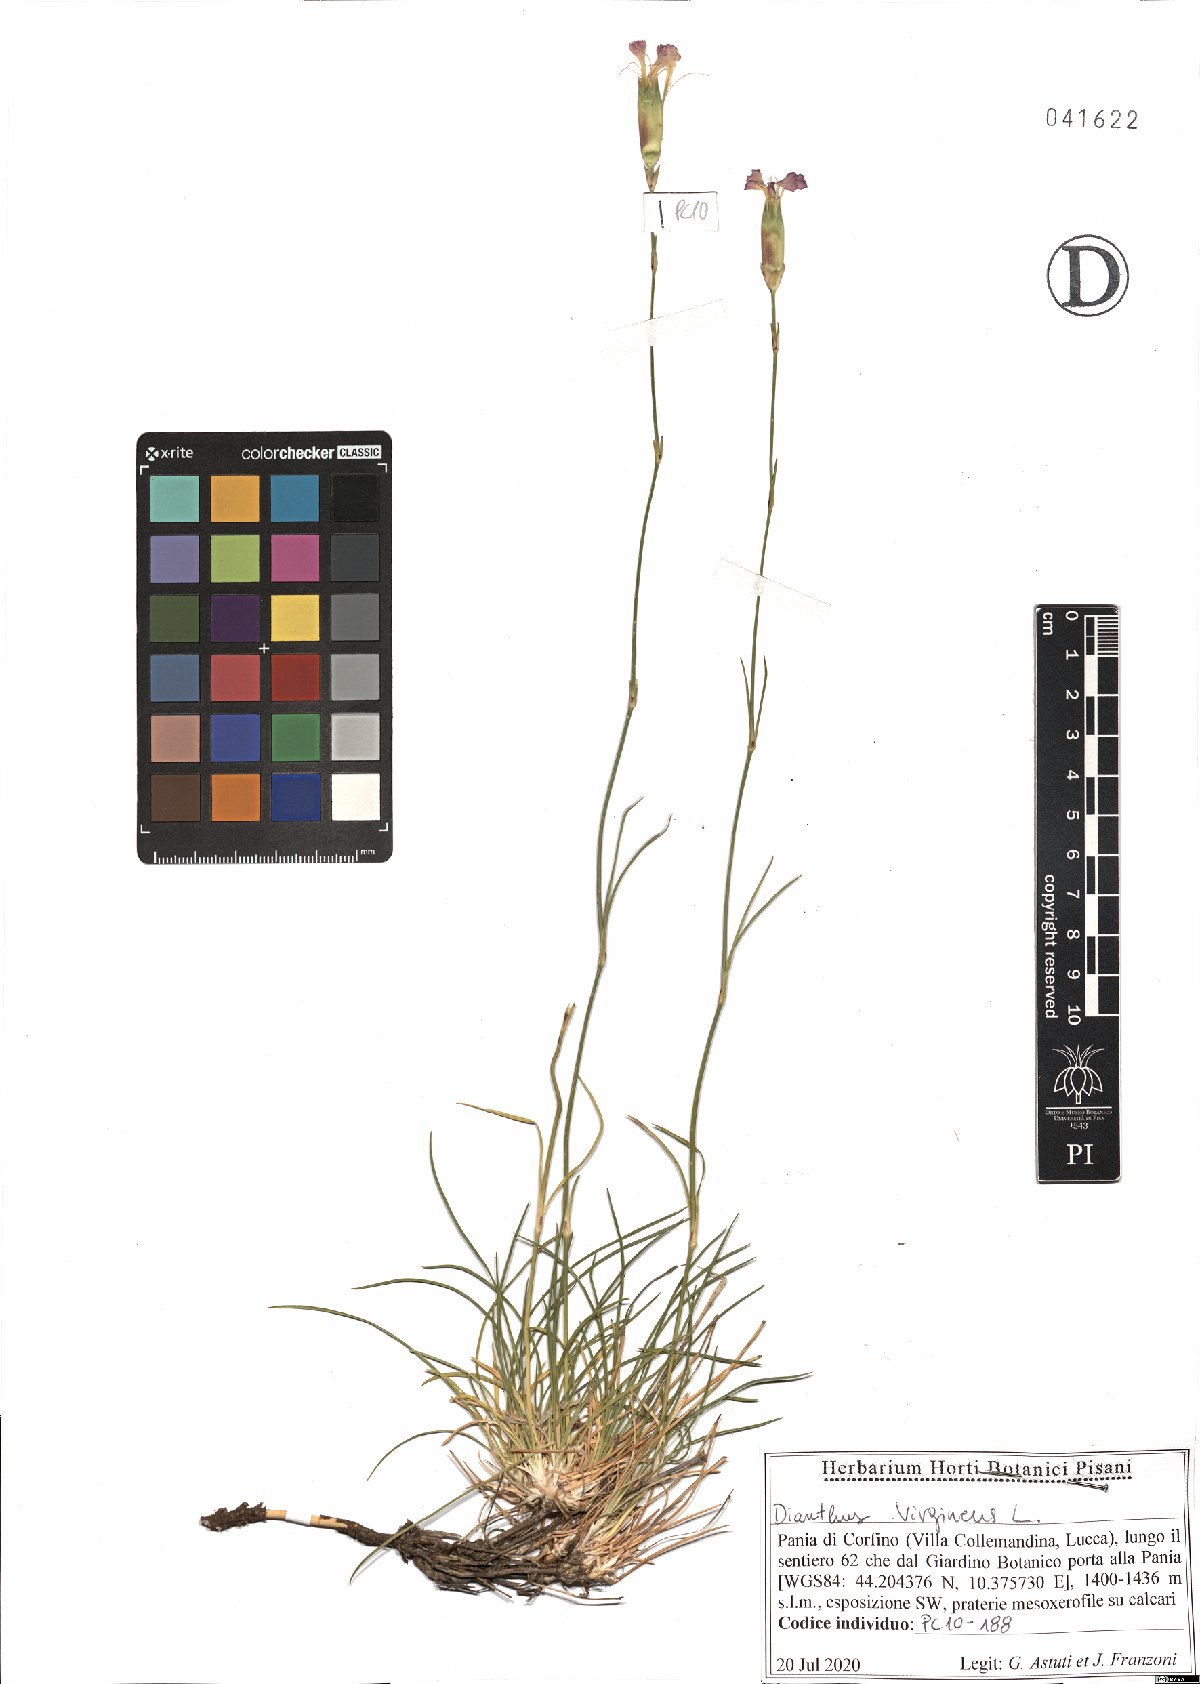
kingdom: Plantae
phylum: Tracheophyta
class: Magnoliopsida
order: Caryophyllales
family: Caryophyllaceae
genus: Dianthus
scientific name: Dianthus virgineus
